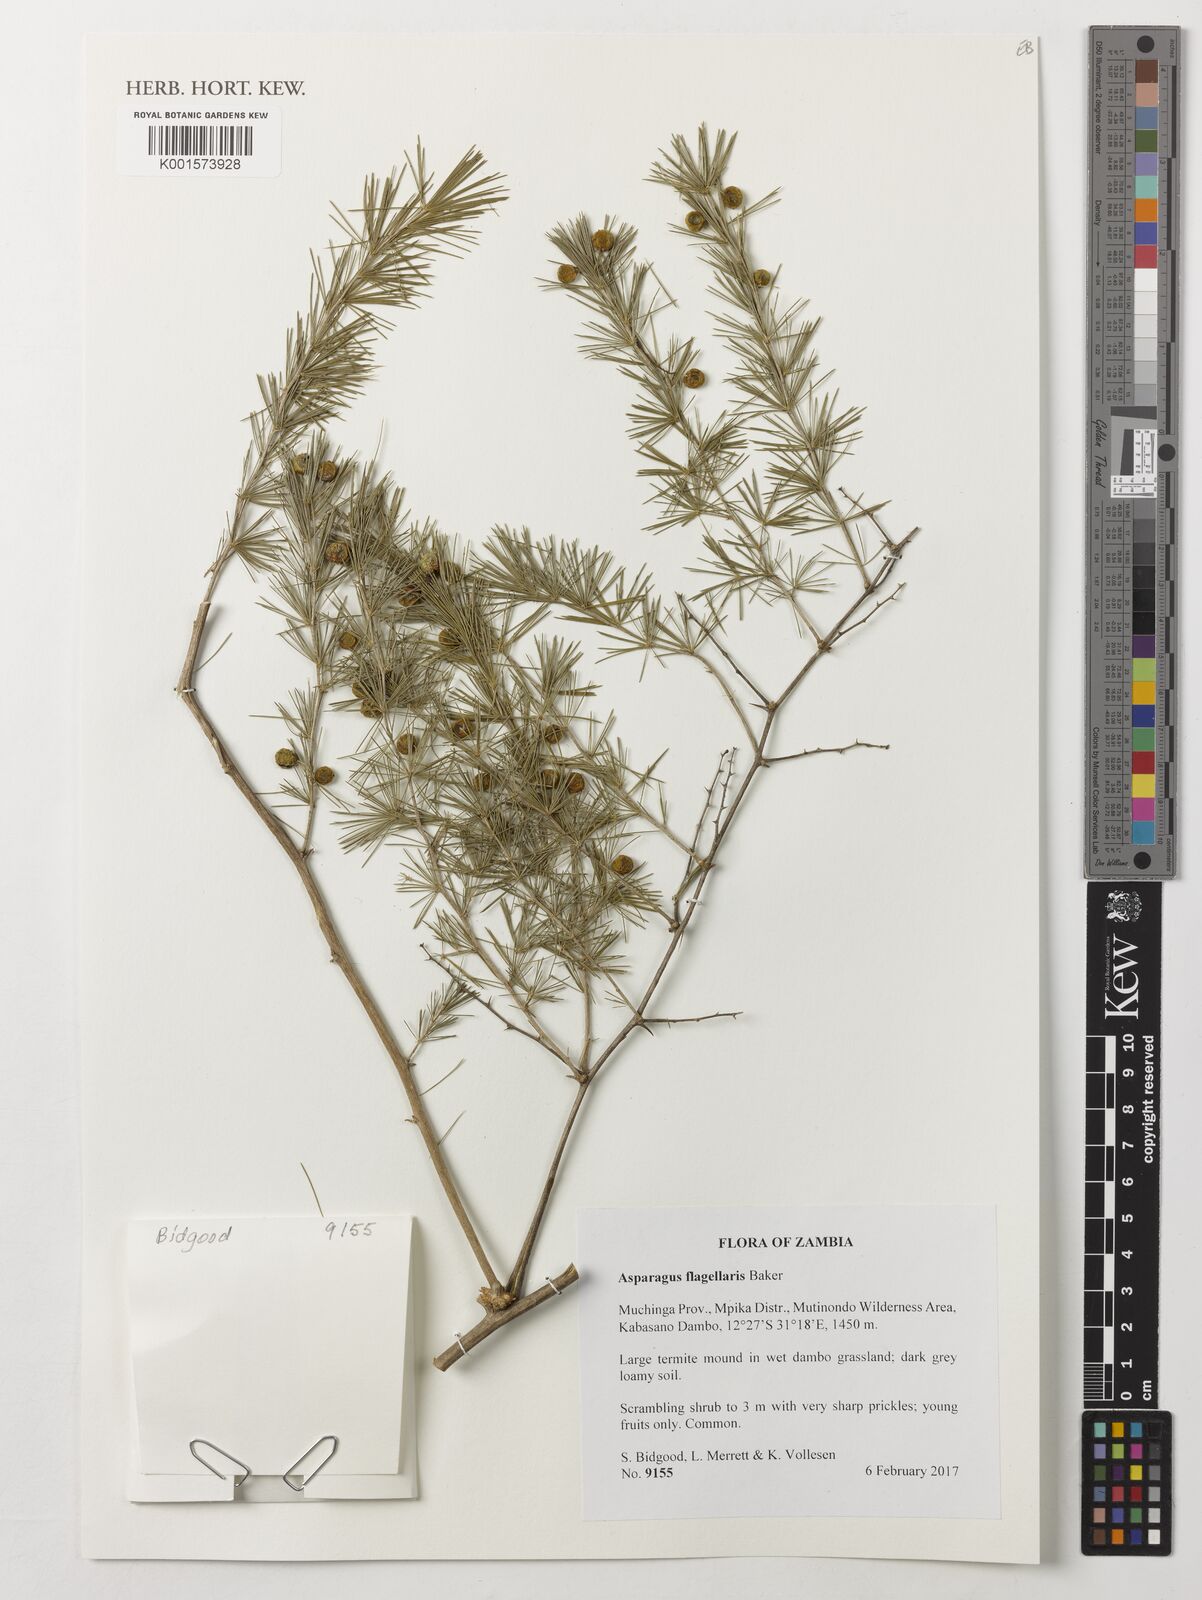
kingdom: Plantae
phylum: Tracheophyta
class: Liliopsida
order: Asparagales
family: Asparagaceae
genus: Asparagus
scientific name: Asparagus flagellaris
